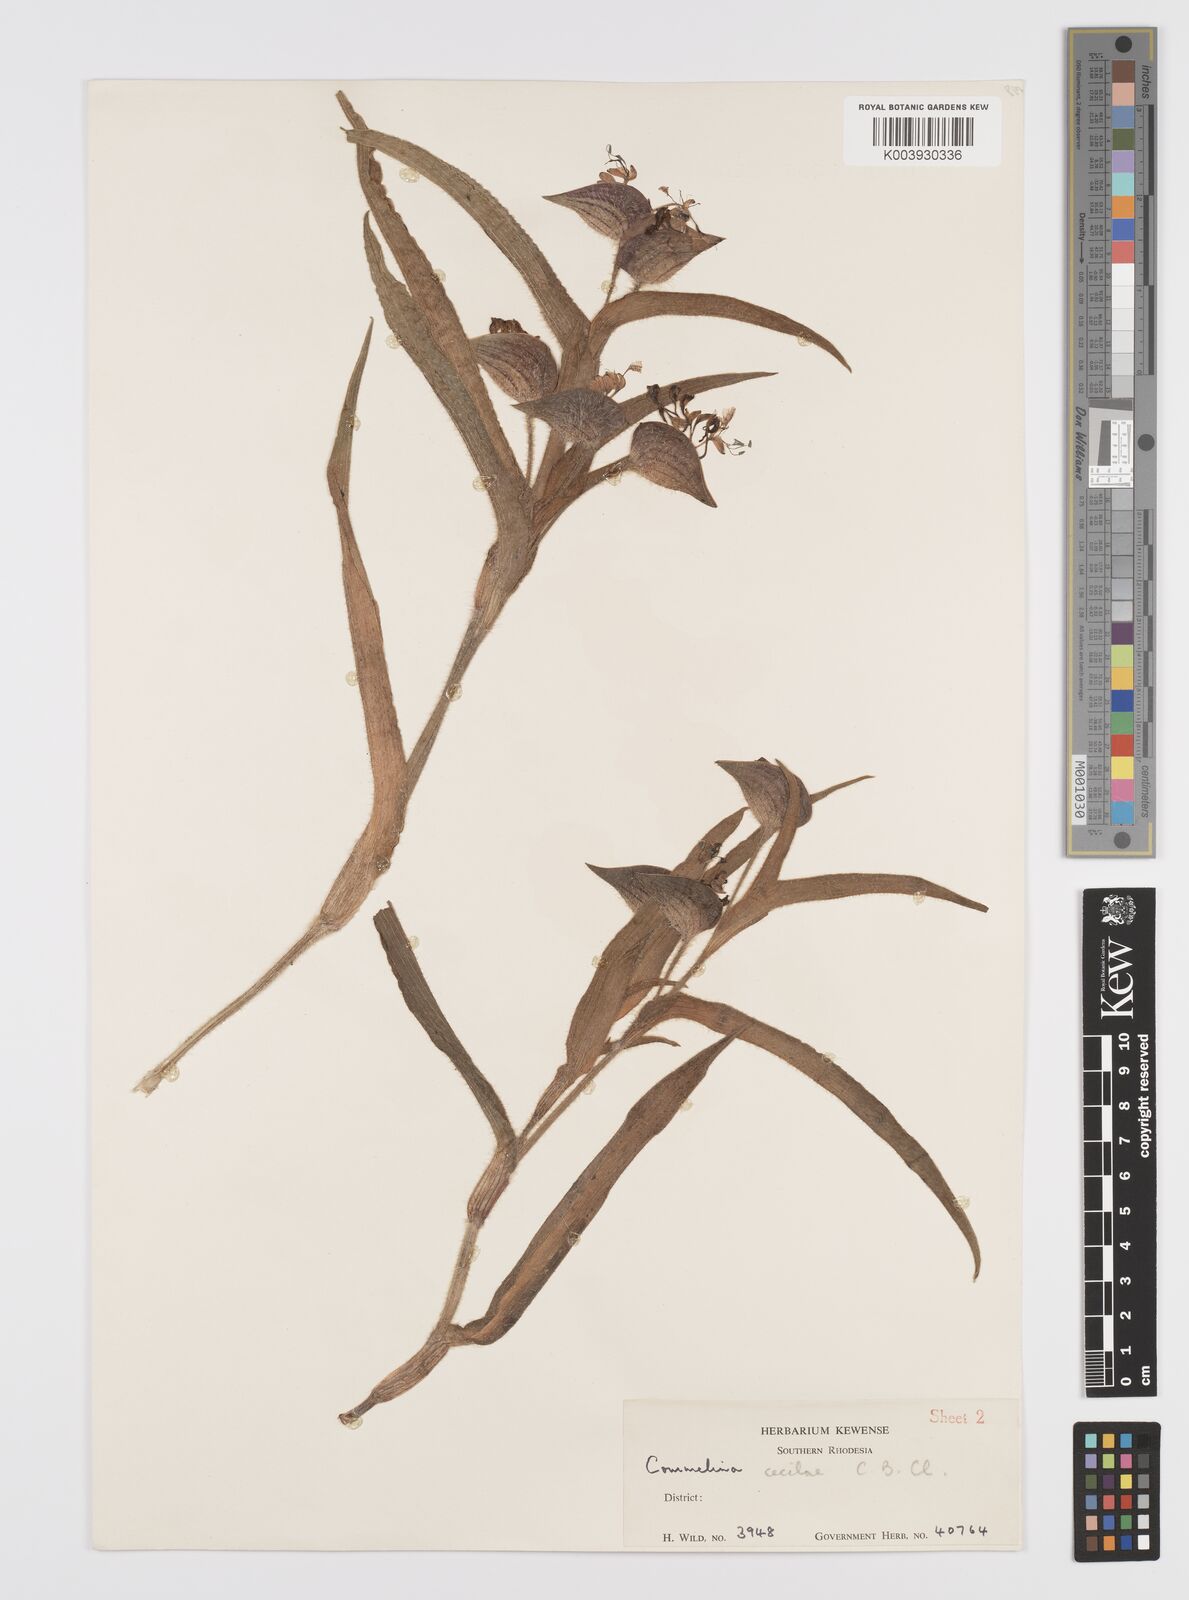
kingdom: Plantae
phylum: Tracheophyta
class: Liliopsida
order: Commelinales
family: Commelinaceae
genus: Commelina
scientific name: Commelina cecilae
